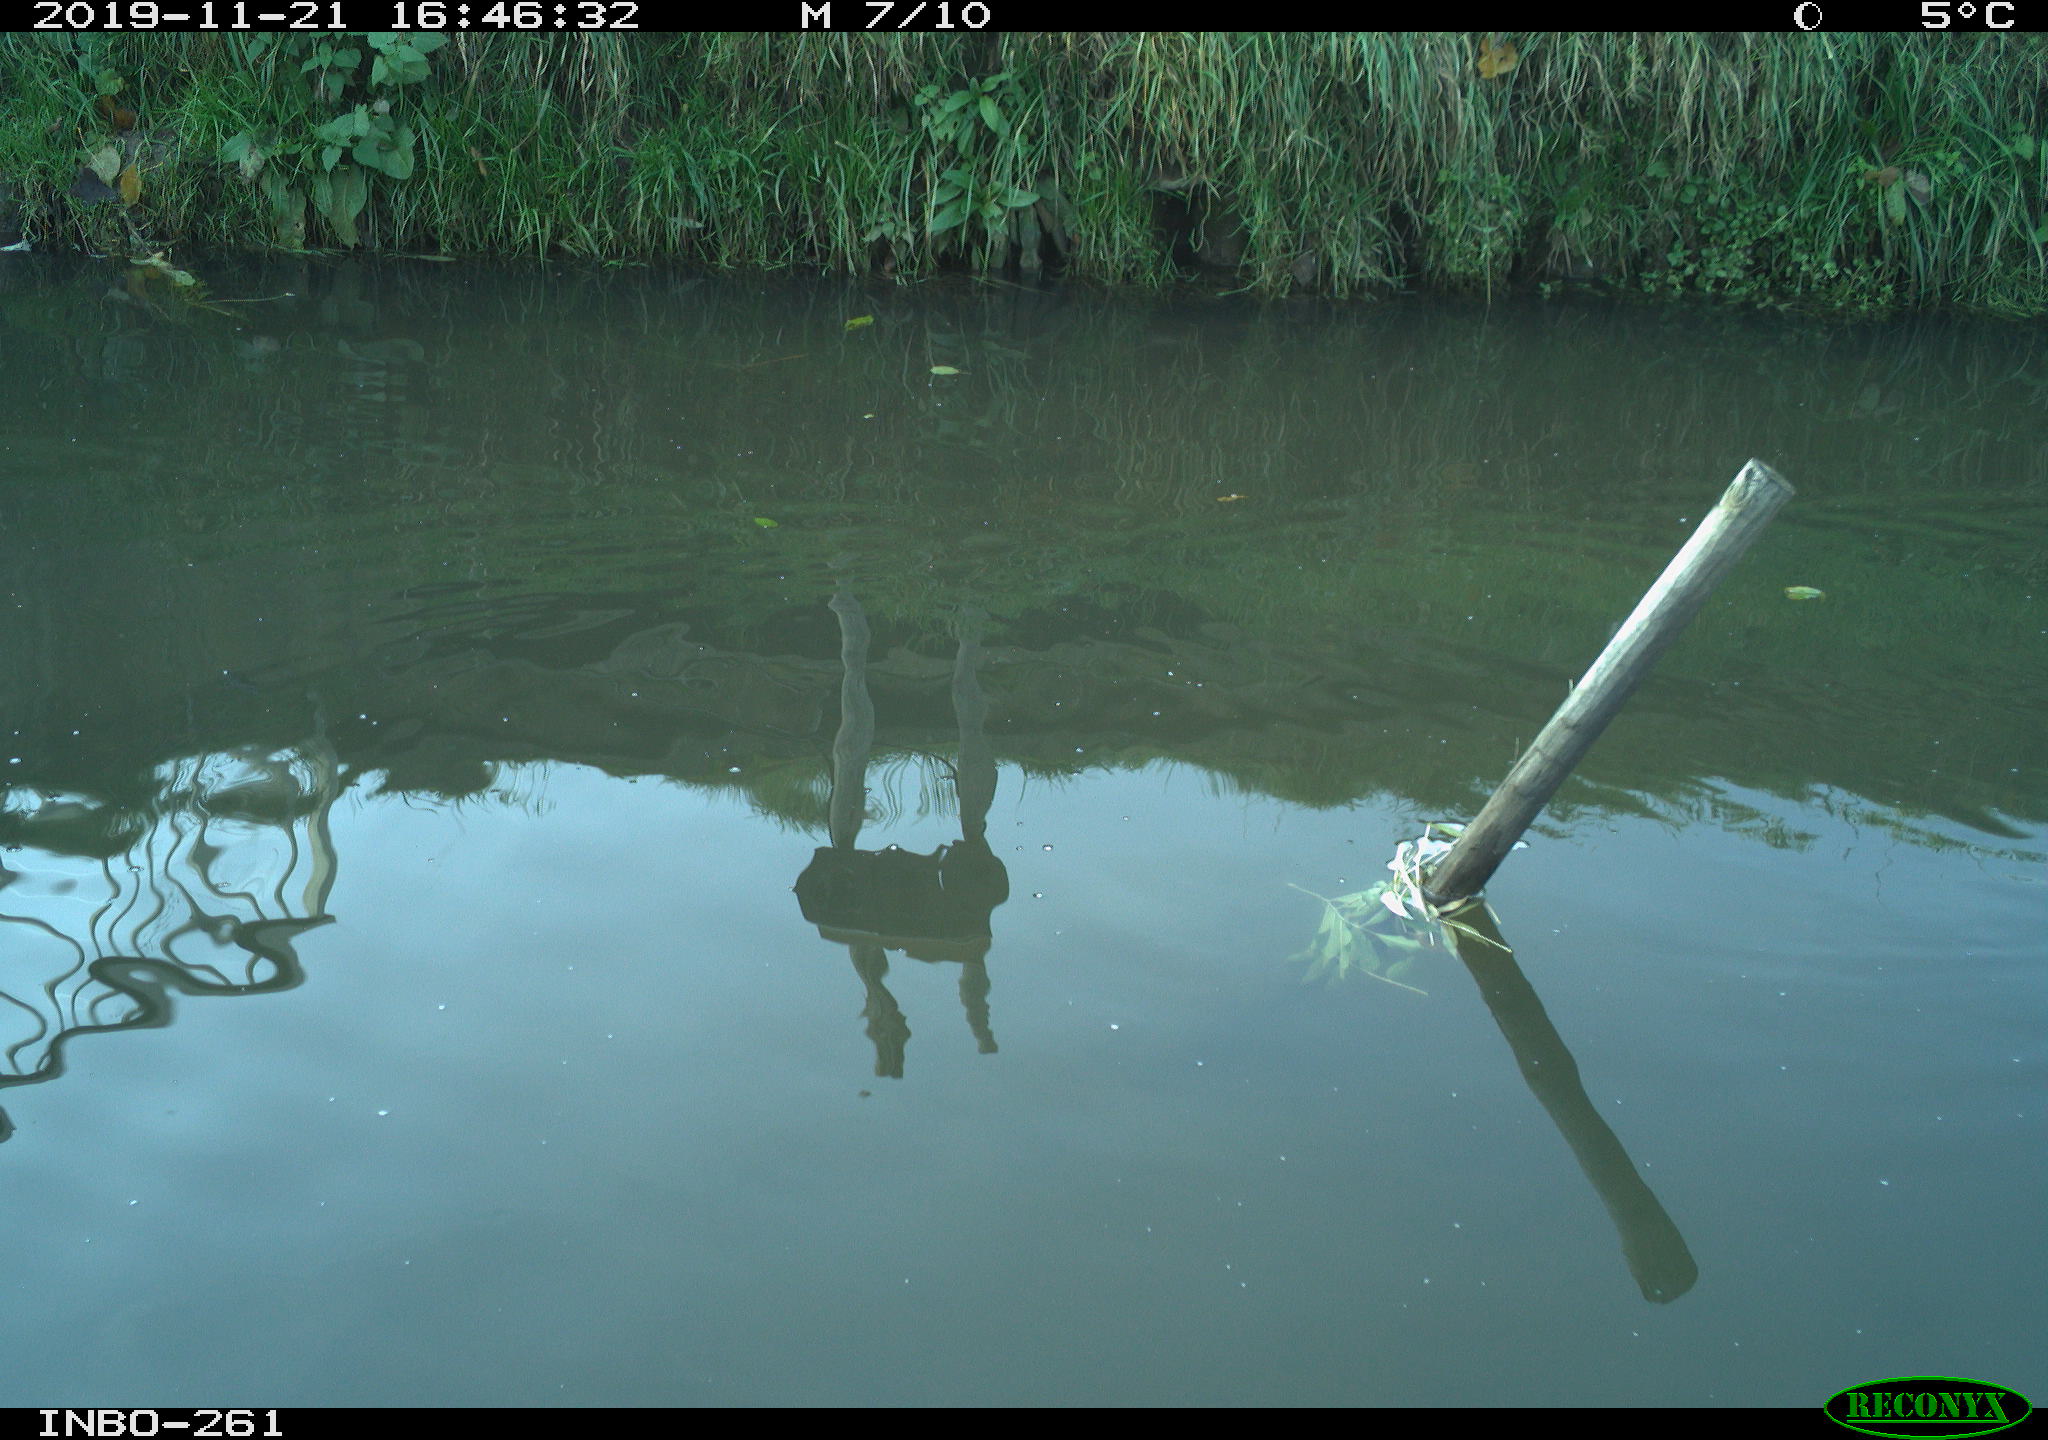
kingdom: Animalia
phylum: Chordata
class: Aves
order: Gruiformes
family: Rallidae
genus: Gallinula
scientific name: Gallinula chloropus
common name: Common moorhen
